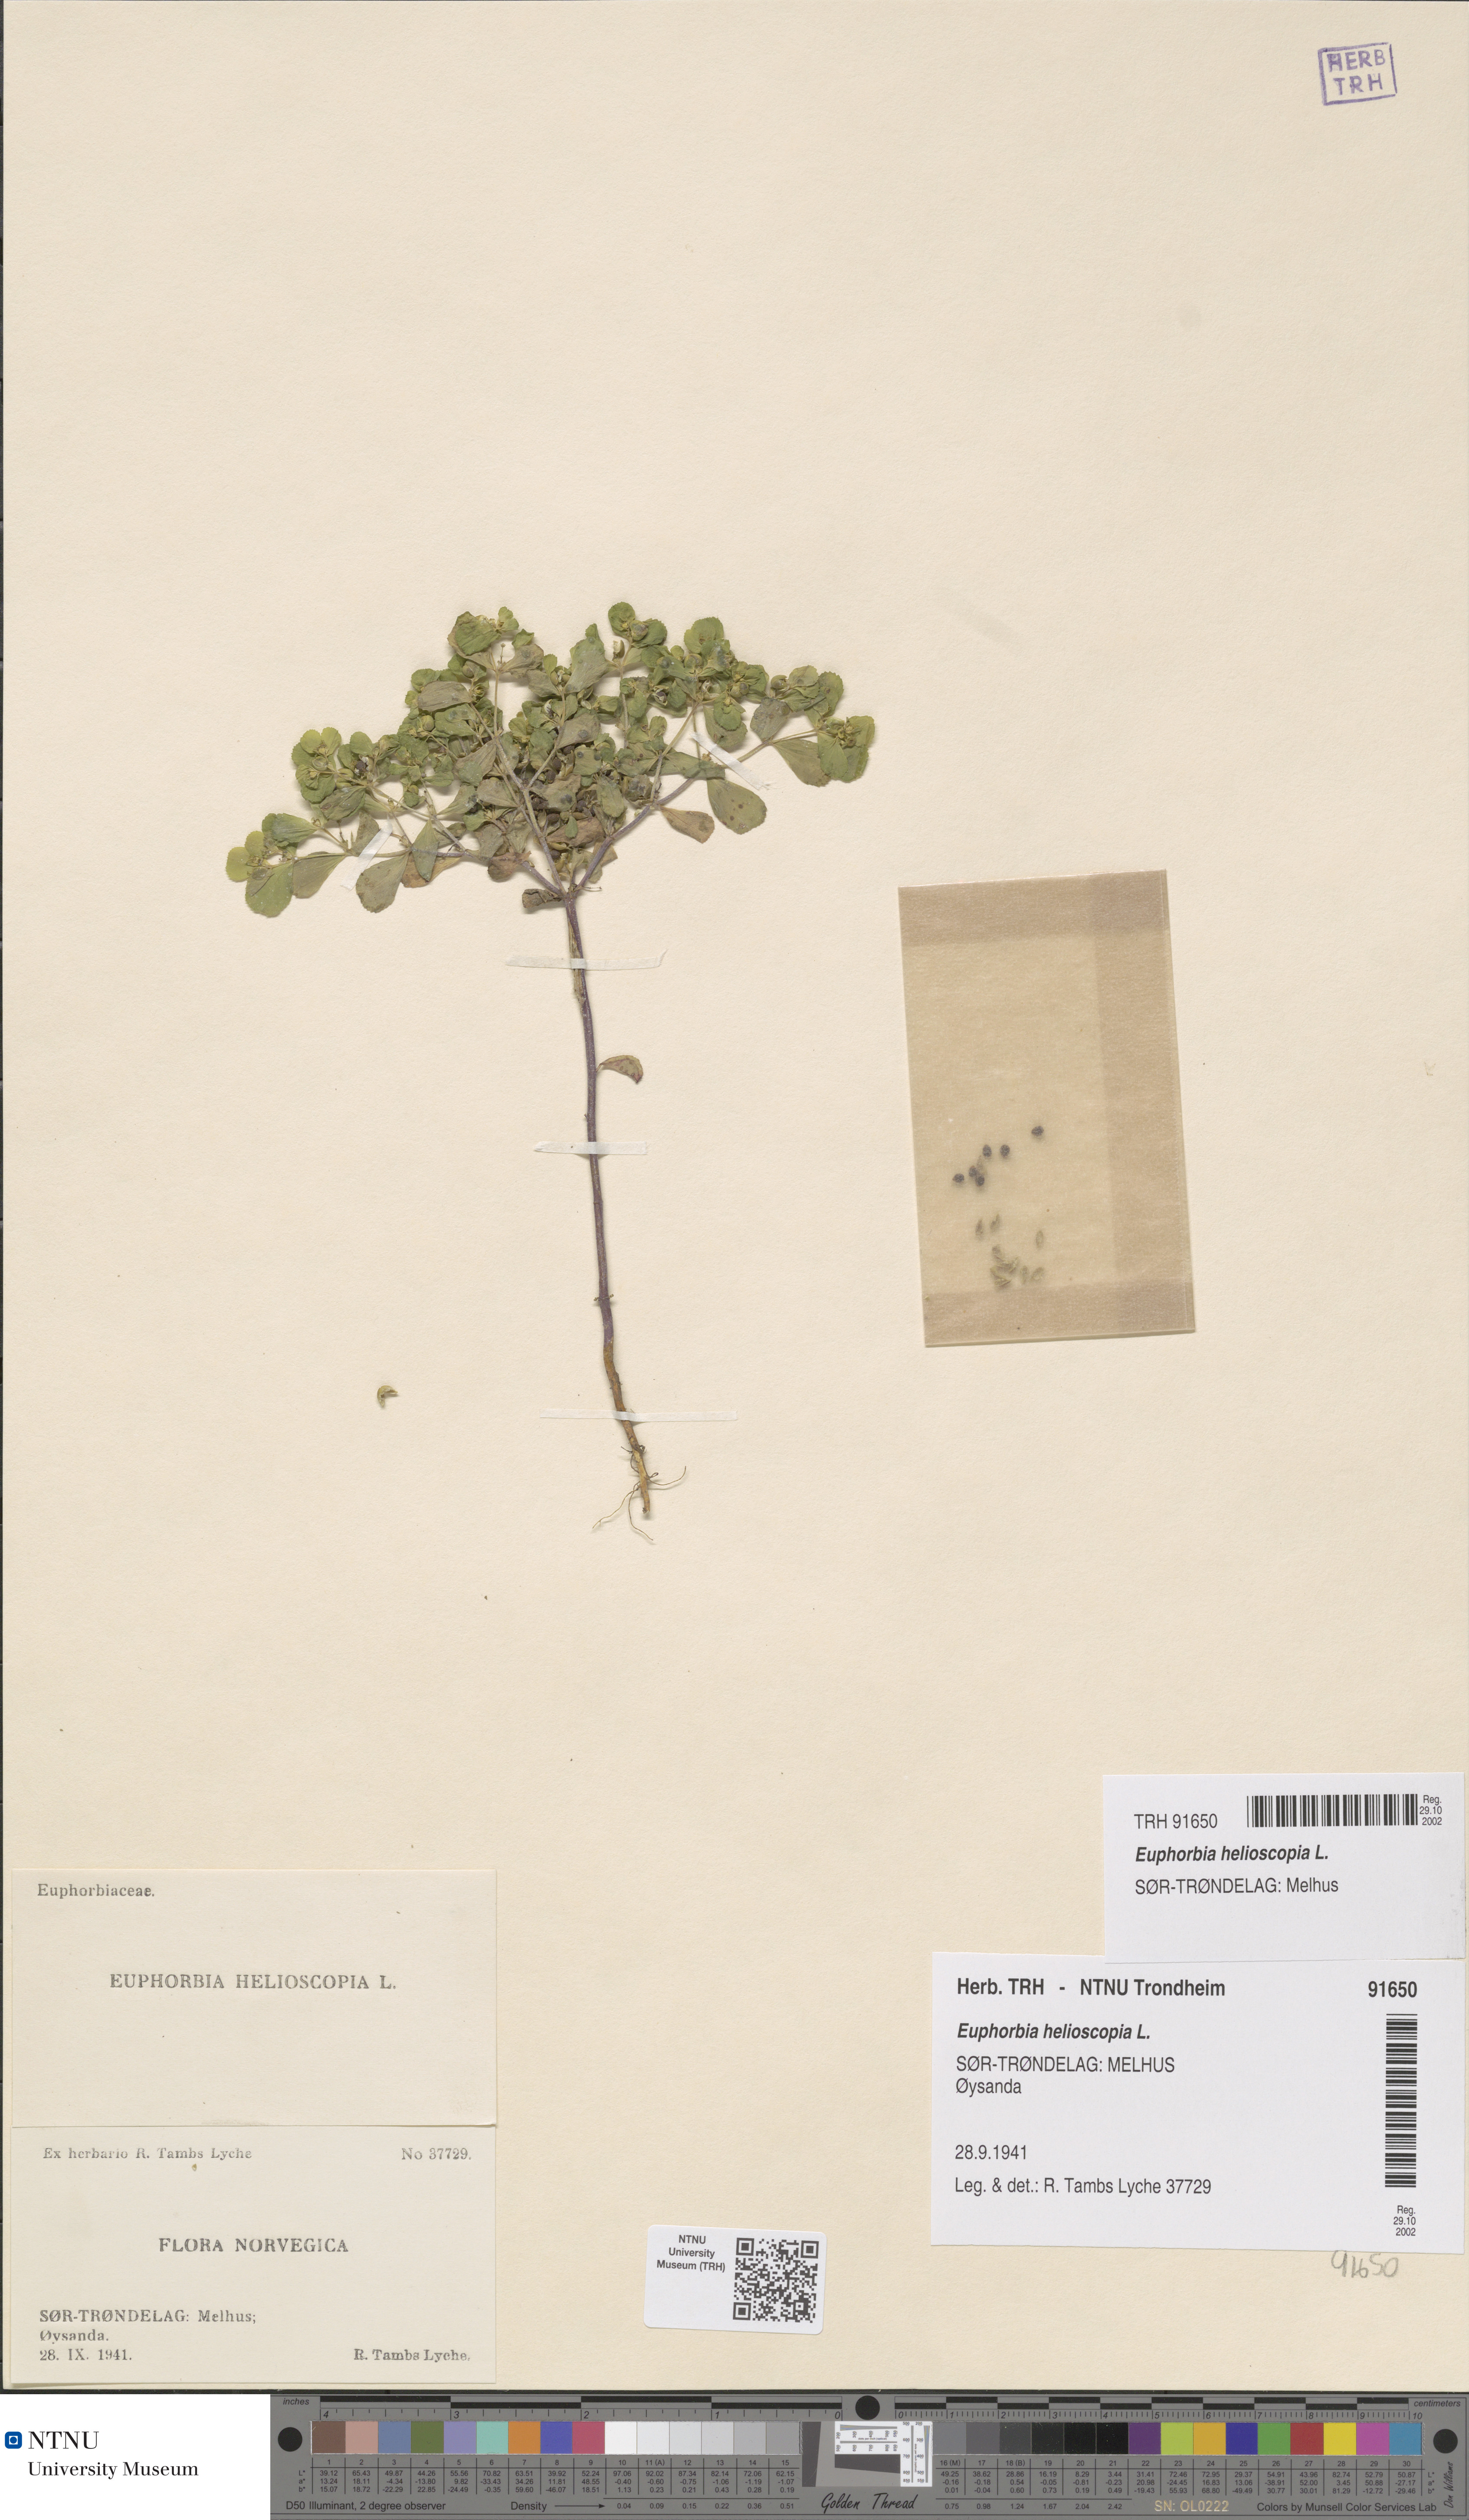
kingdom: Plantae
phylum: Tracheophyta
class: Magnoliopsida
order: Malpighiales
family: Euphorbiaceae
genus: Euphorbia
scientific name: Euphorbia helioscopia
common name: Sun spurge
